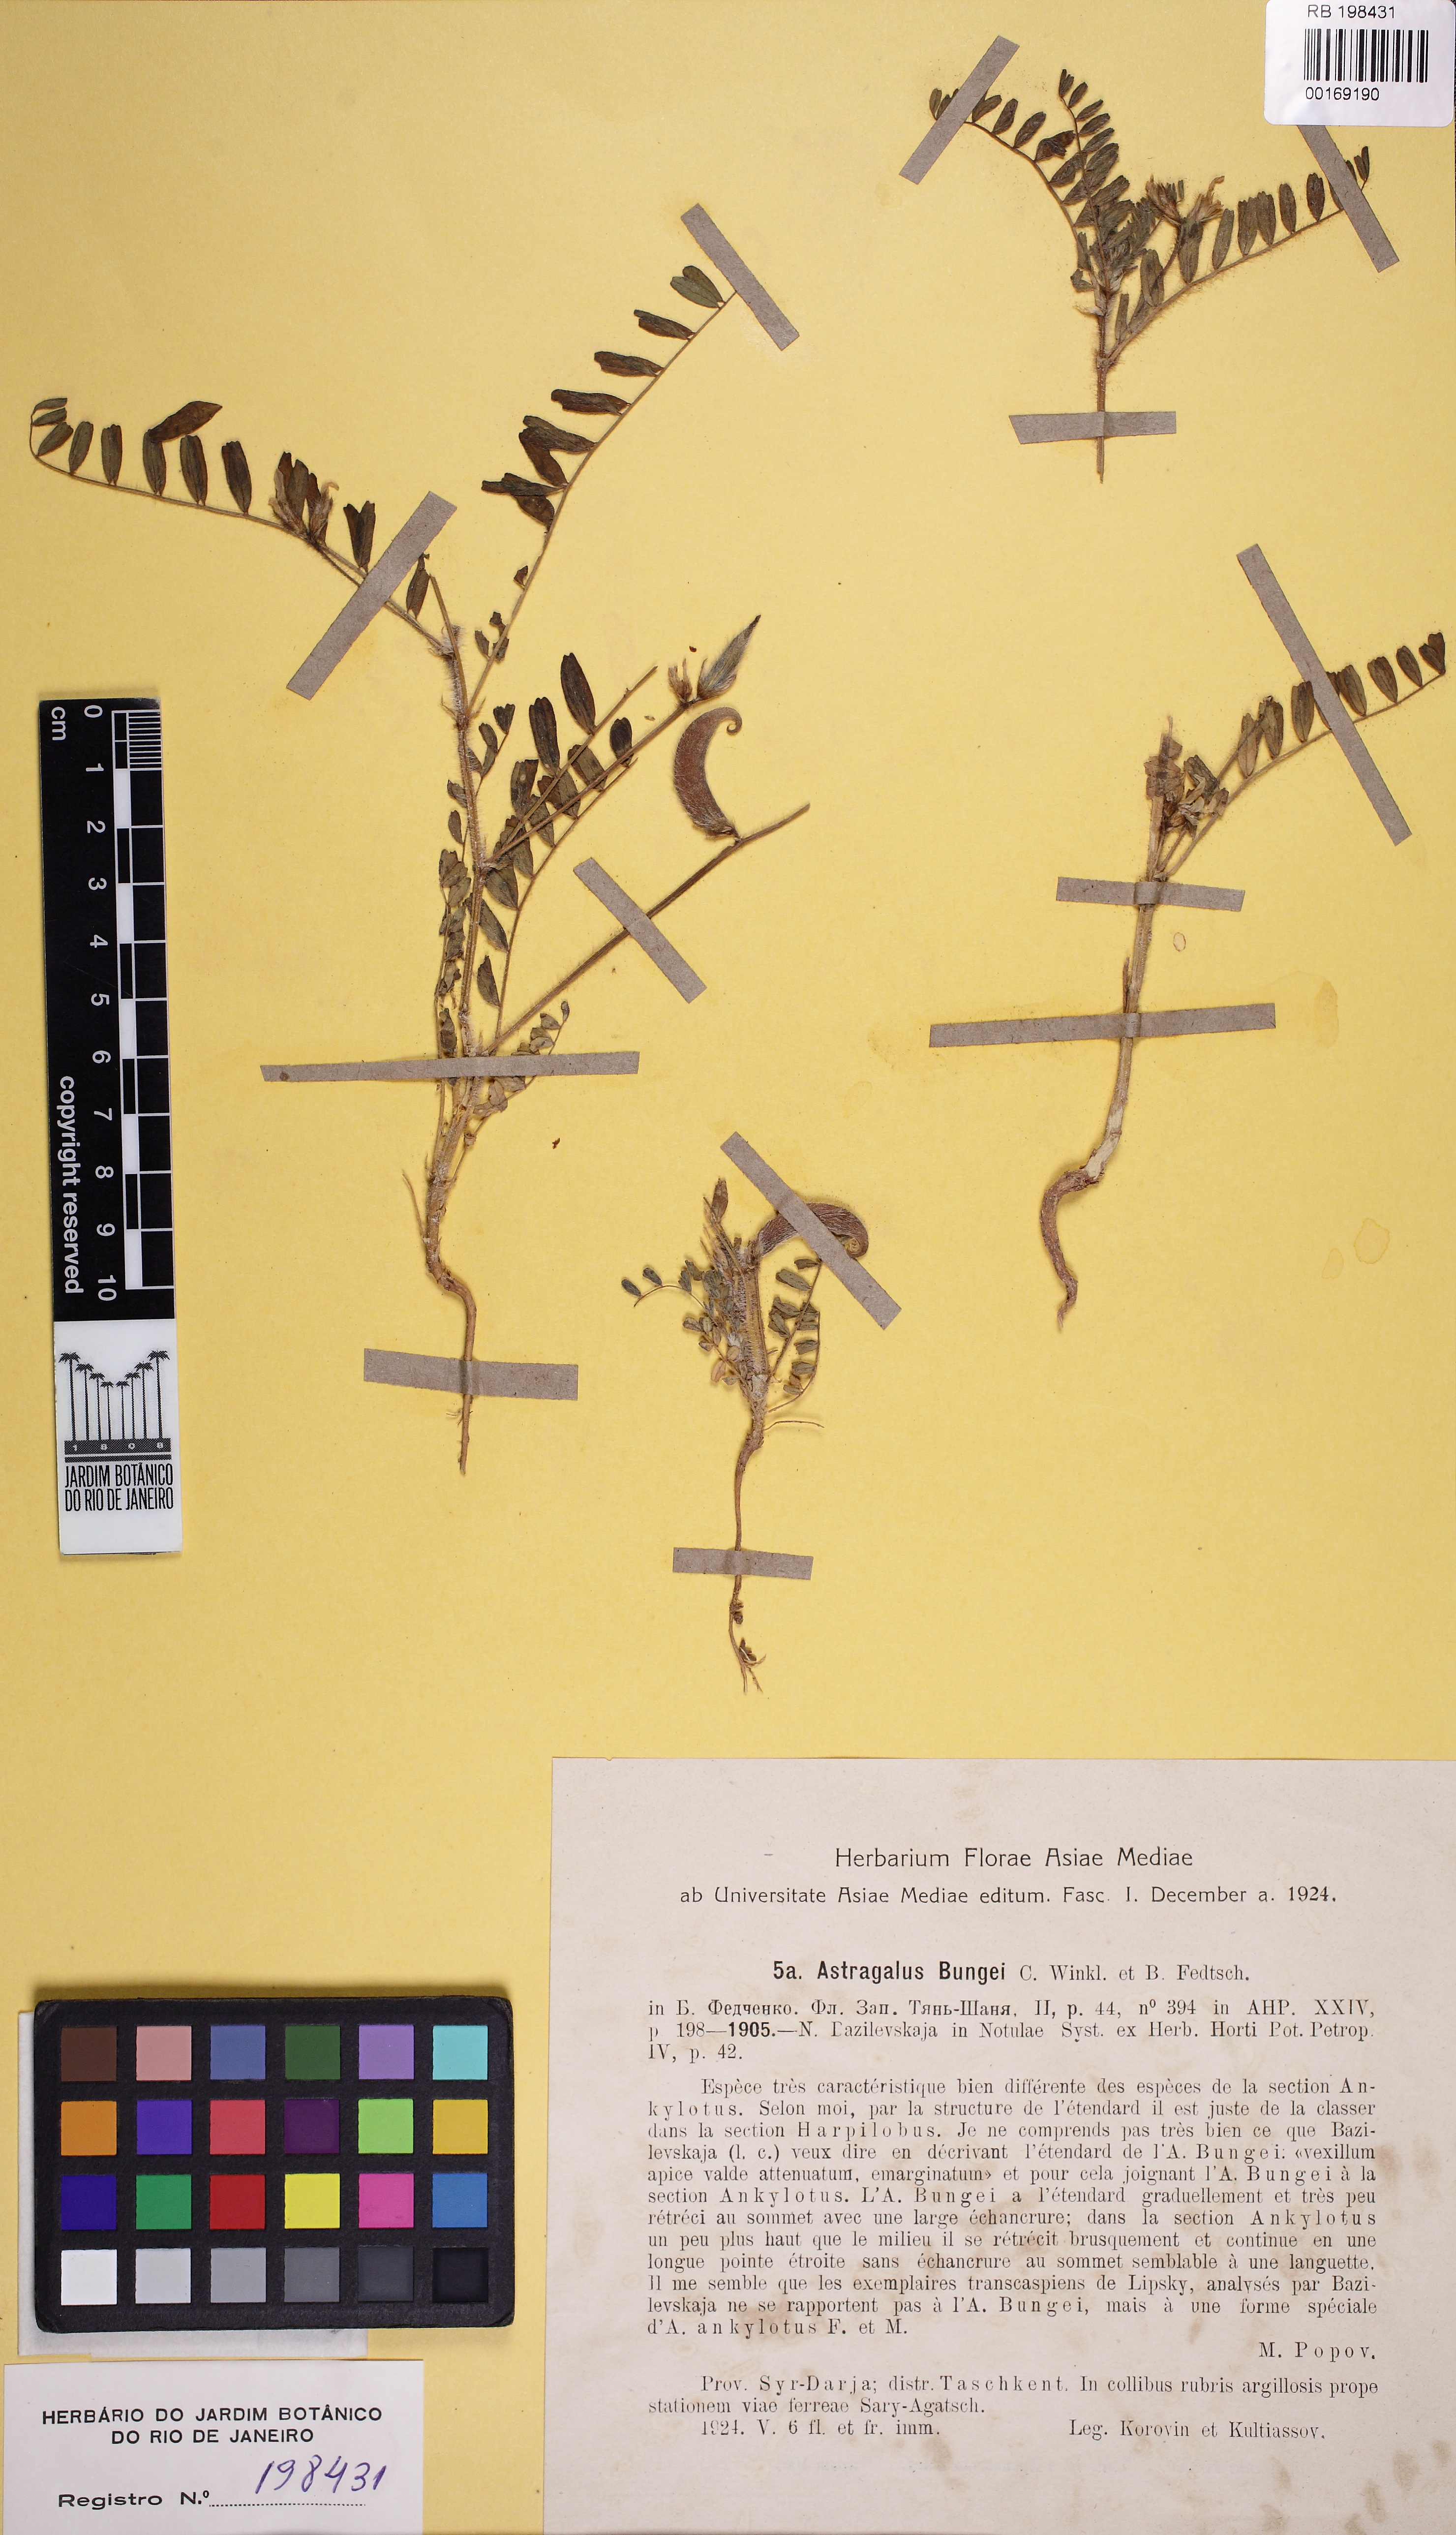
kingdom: Plantae
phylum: Tracheophyta
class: Magnoliopsida
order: Fabales
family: Fabaceae
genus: Astragalus
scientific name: Astragalus camptoceras
